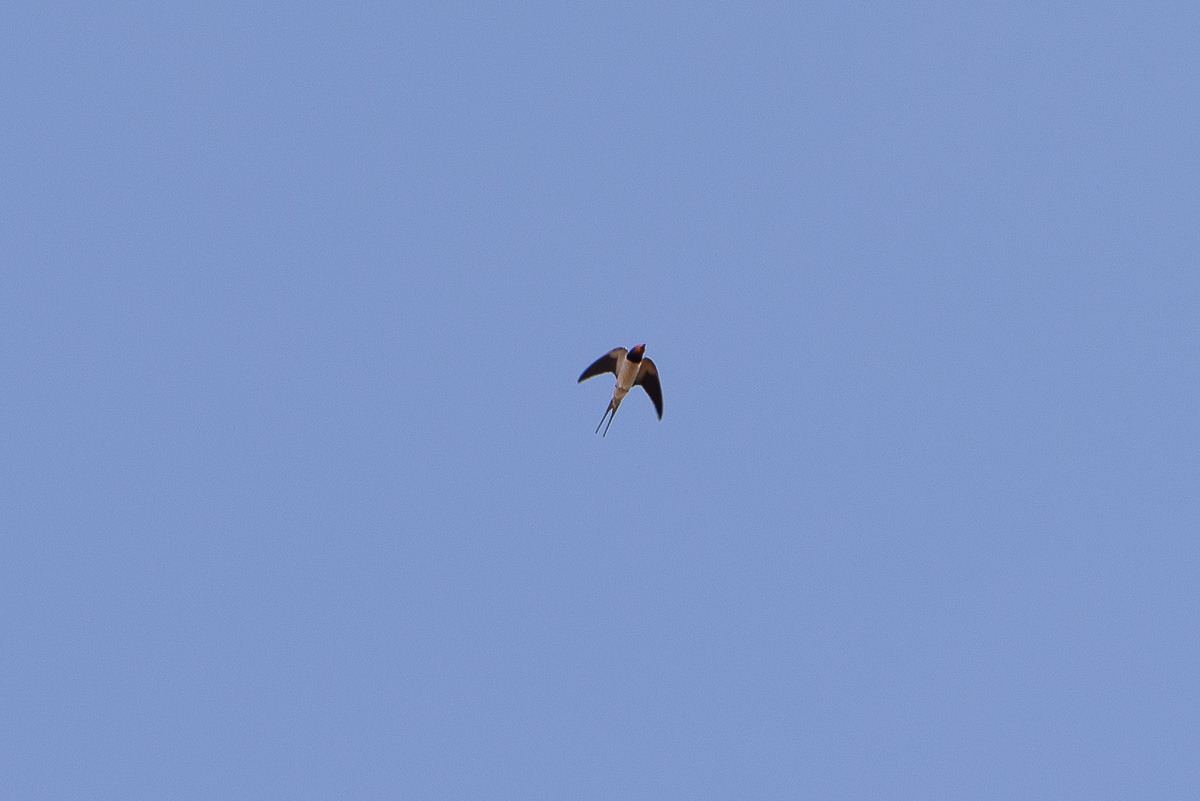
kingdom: Animalia
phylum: Chordata
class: Aves
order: Passeriformes
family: Hirundinidae
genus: Hirundo
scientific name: Hirundo rustica
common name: Landsvale
